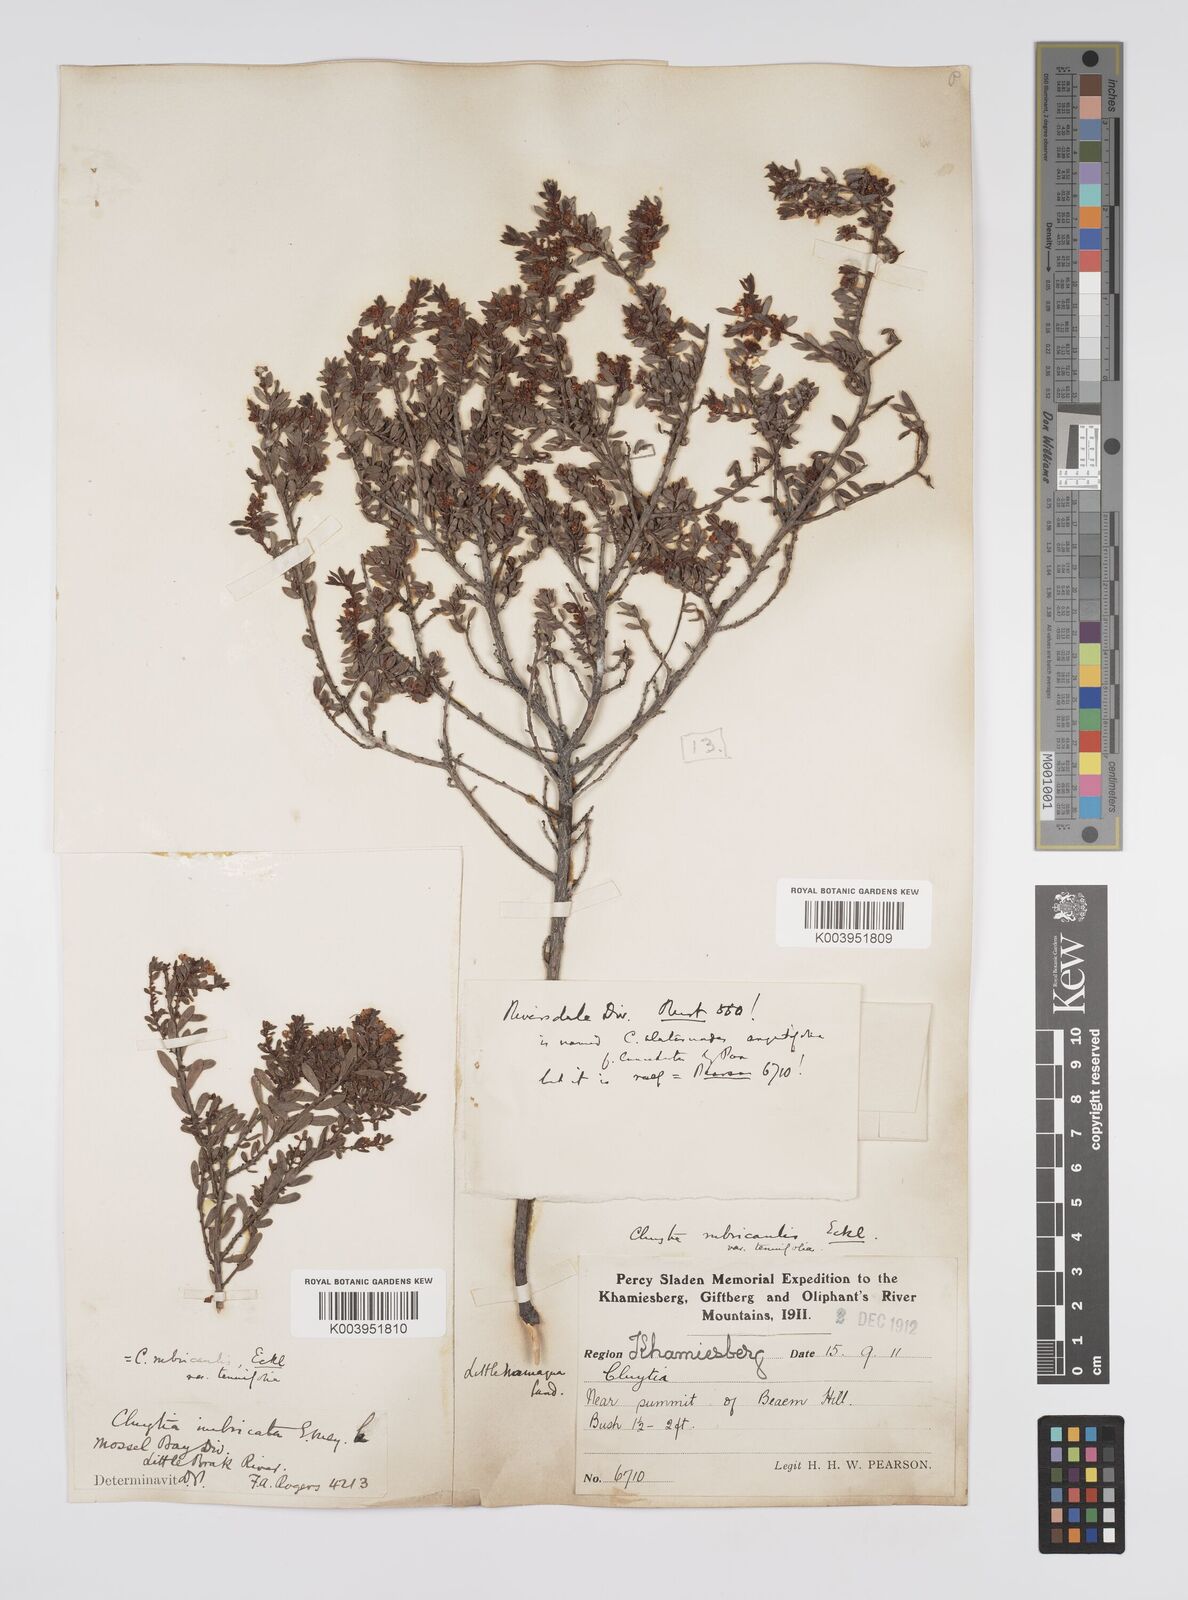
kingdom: Plantae
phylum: Tracheophyta
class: Magnoliopsida
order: Malpighiales
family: Peraceae
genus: Clutia
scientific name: Clutia rubricaulis
